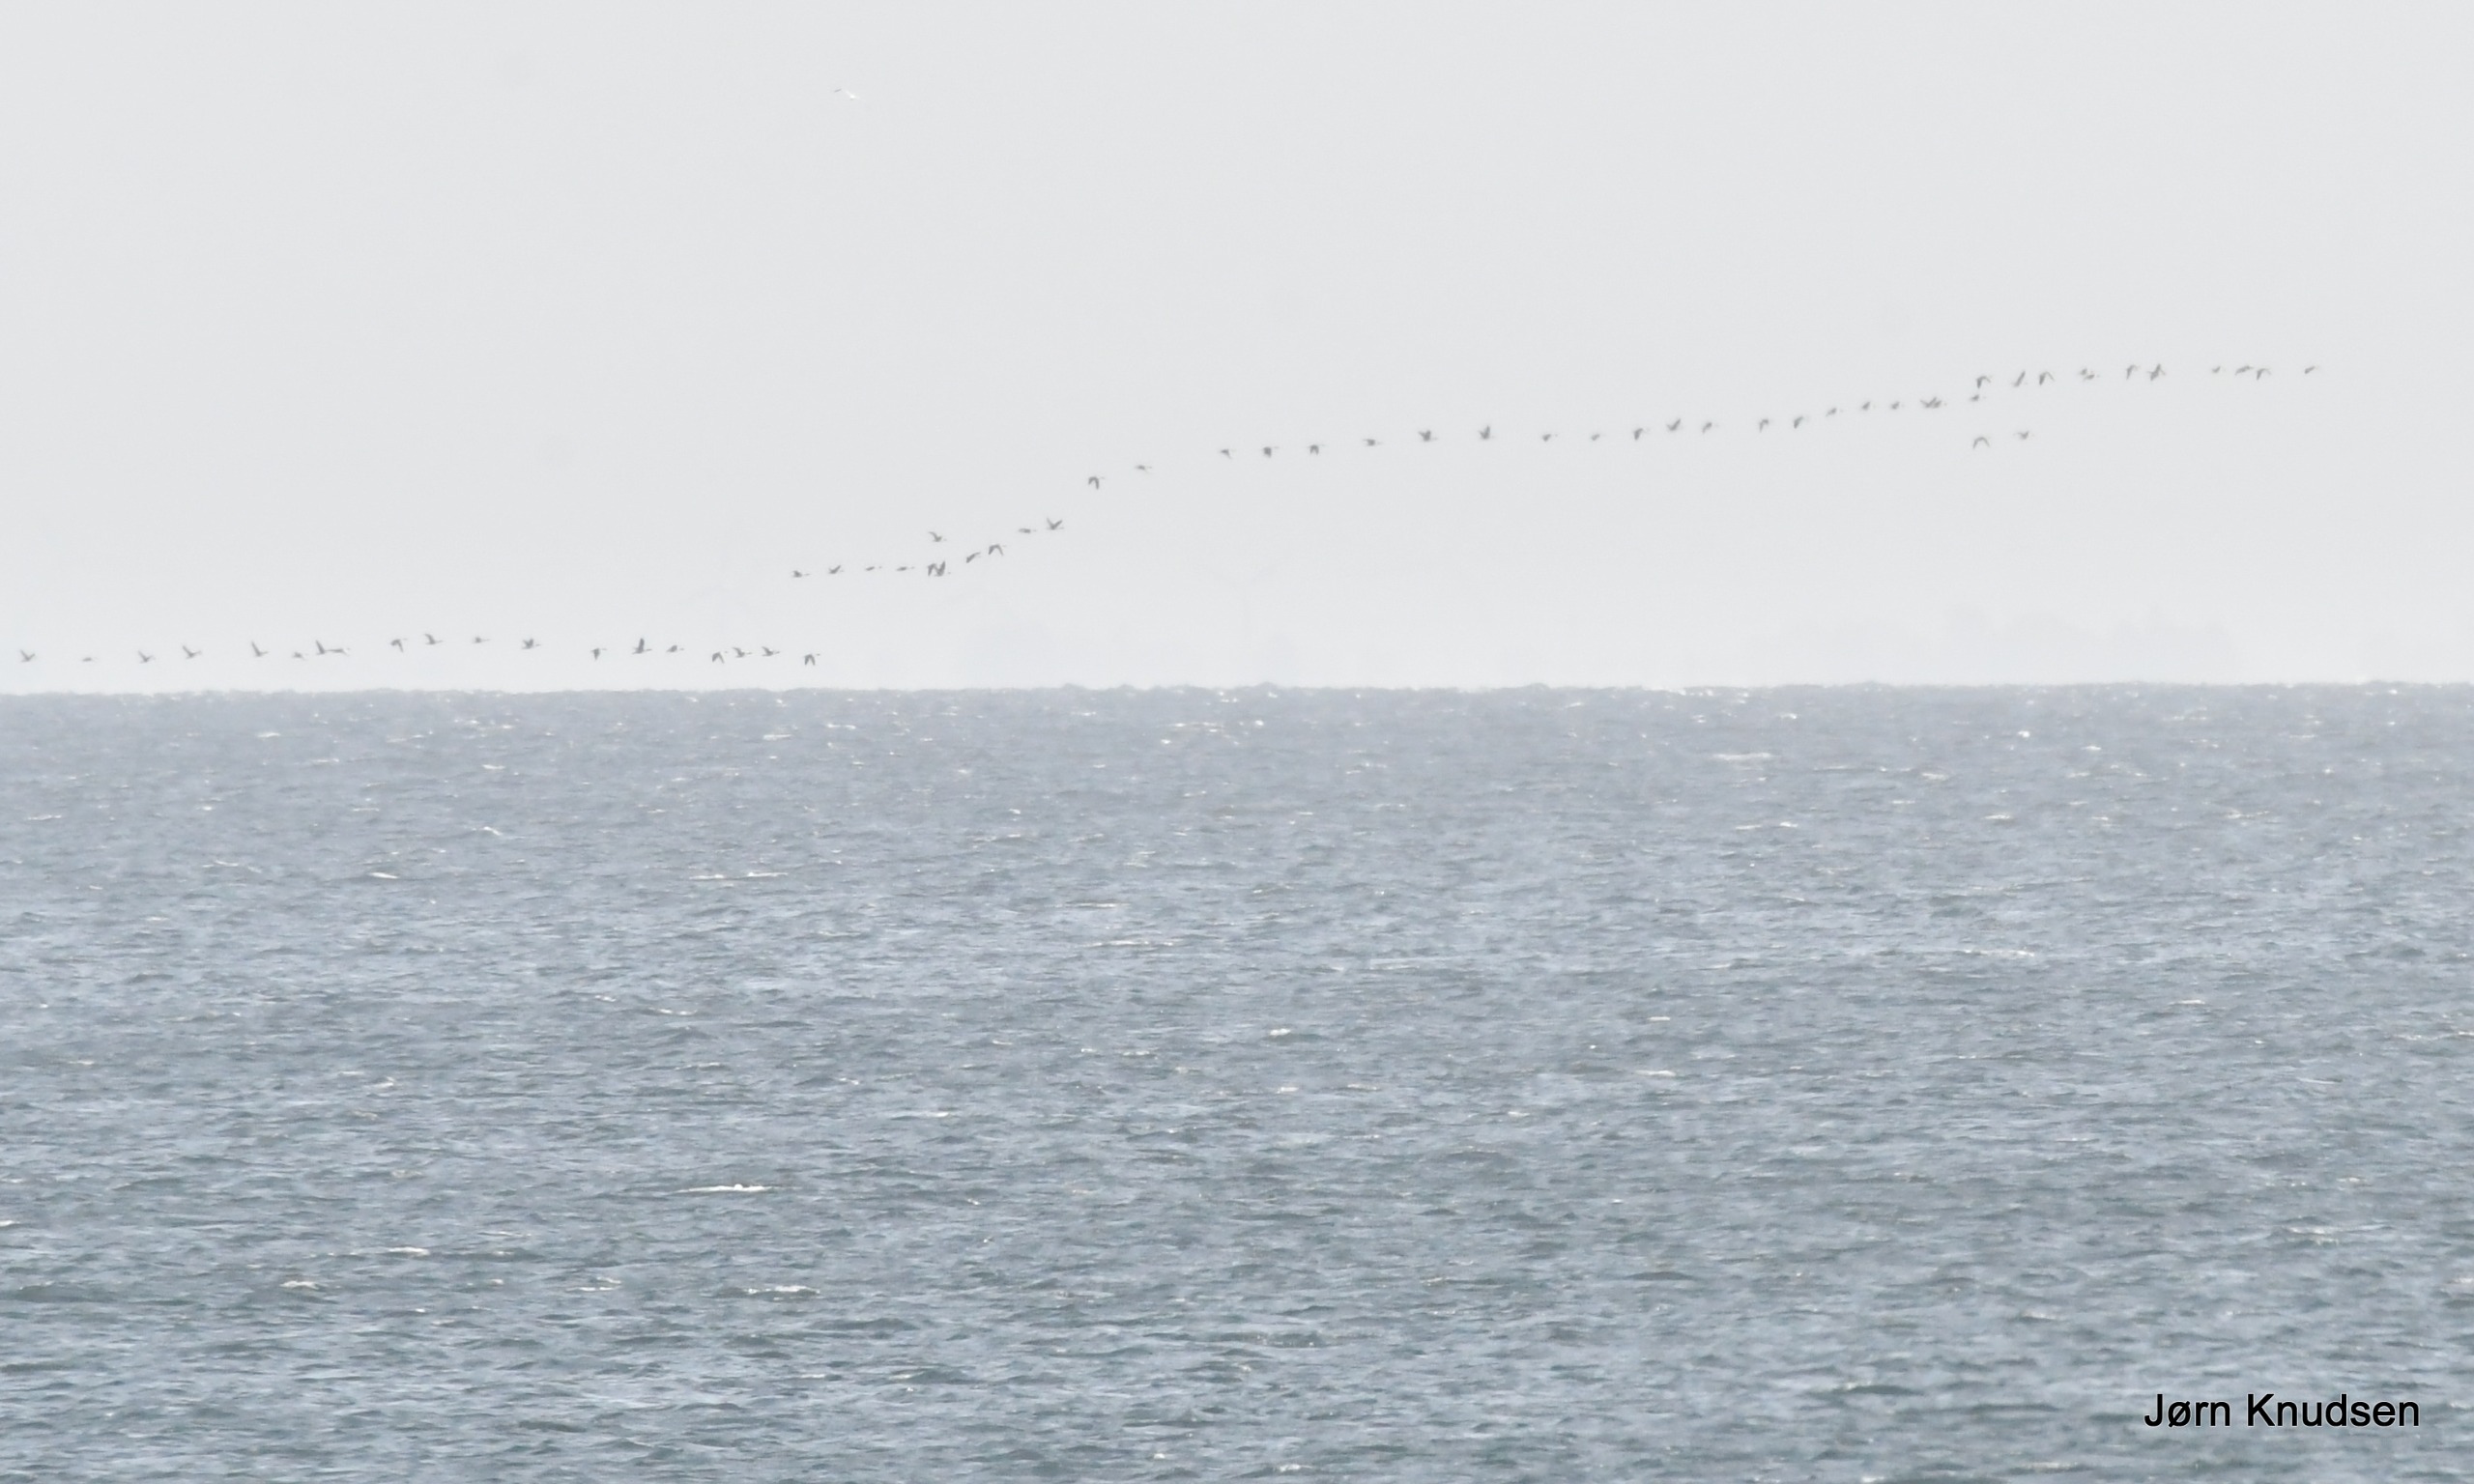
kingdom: Animalia
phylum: Chordata
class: Aves
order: Anseriformes
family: Anatidae
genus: Anser
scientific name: Anser anser
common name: Grågås
